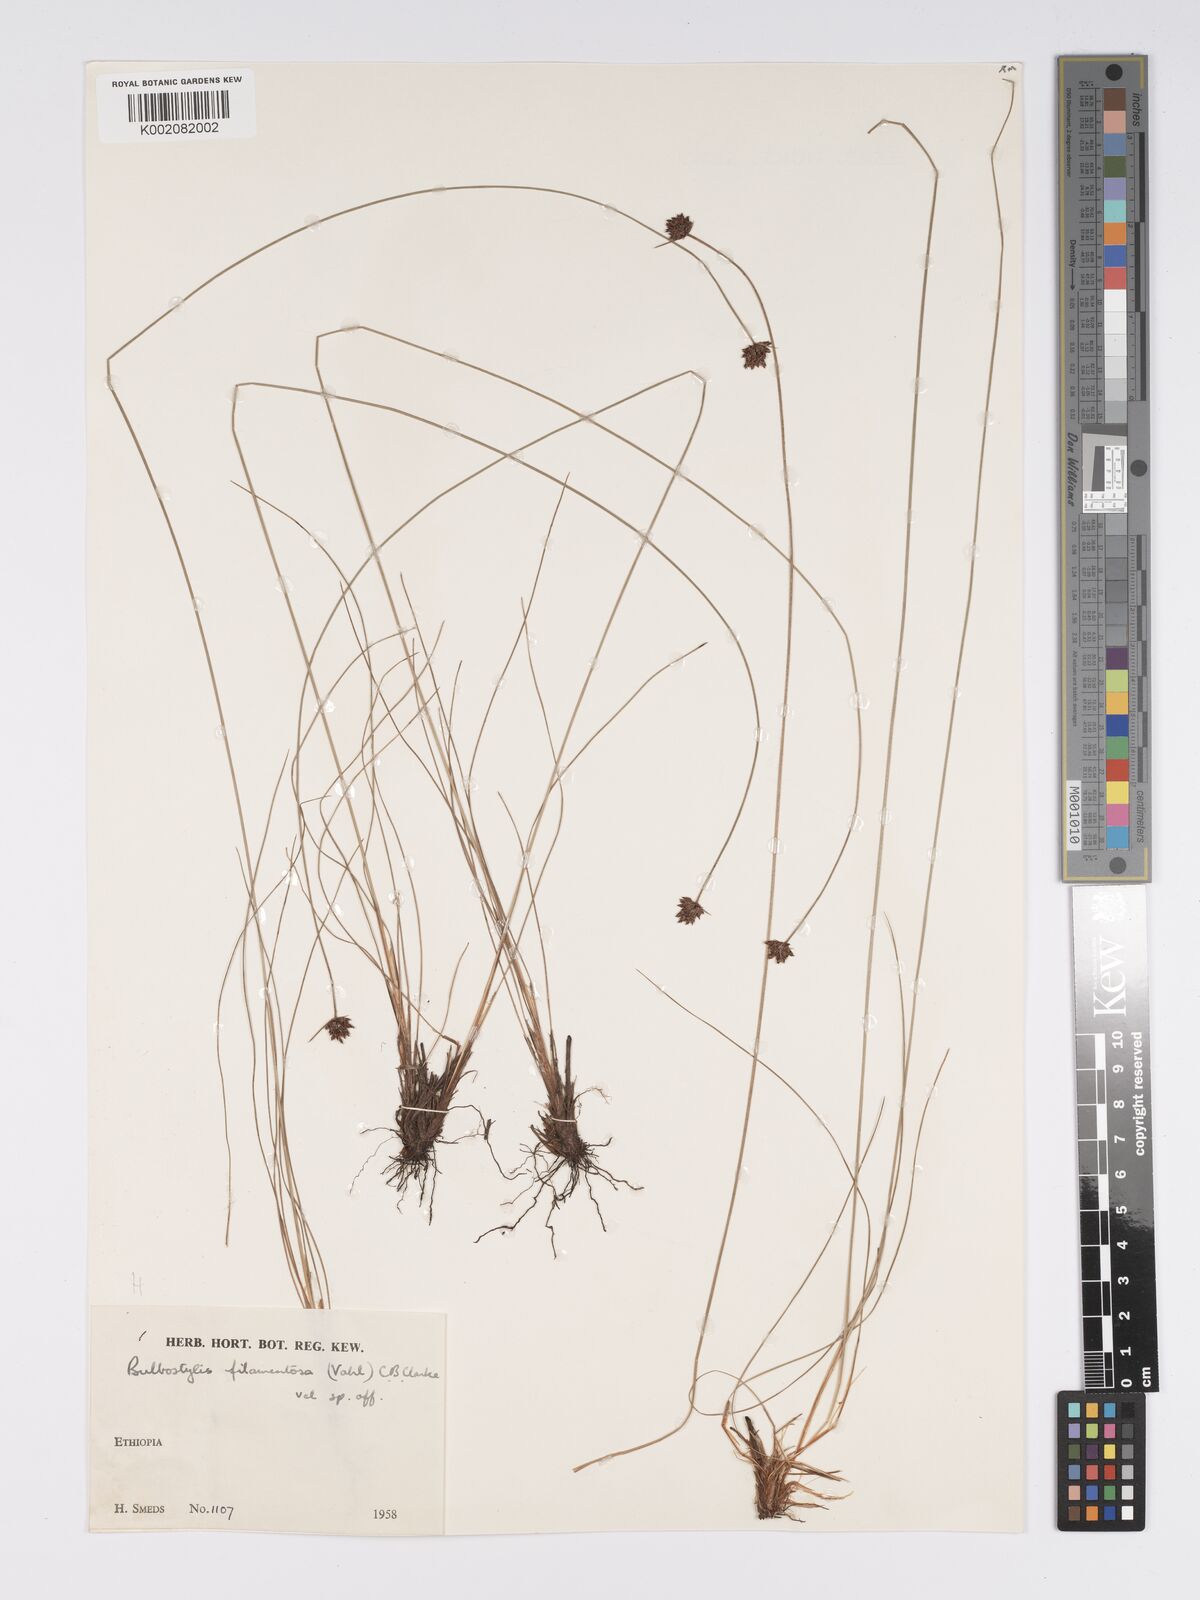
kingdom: Plantae
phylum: Tracheophyta
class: Liliopsida
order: Poales
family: Cyperaceae
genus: Bulbostylis
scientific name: Bulbostylis scabricaulis
